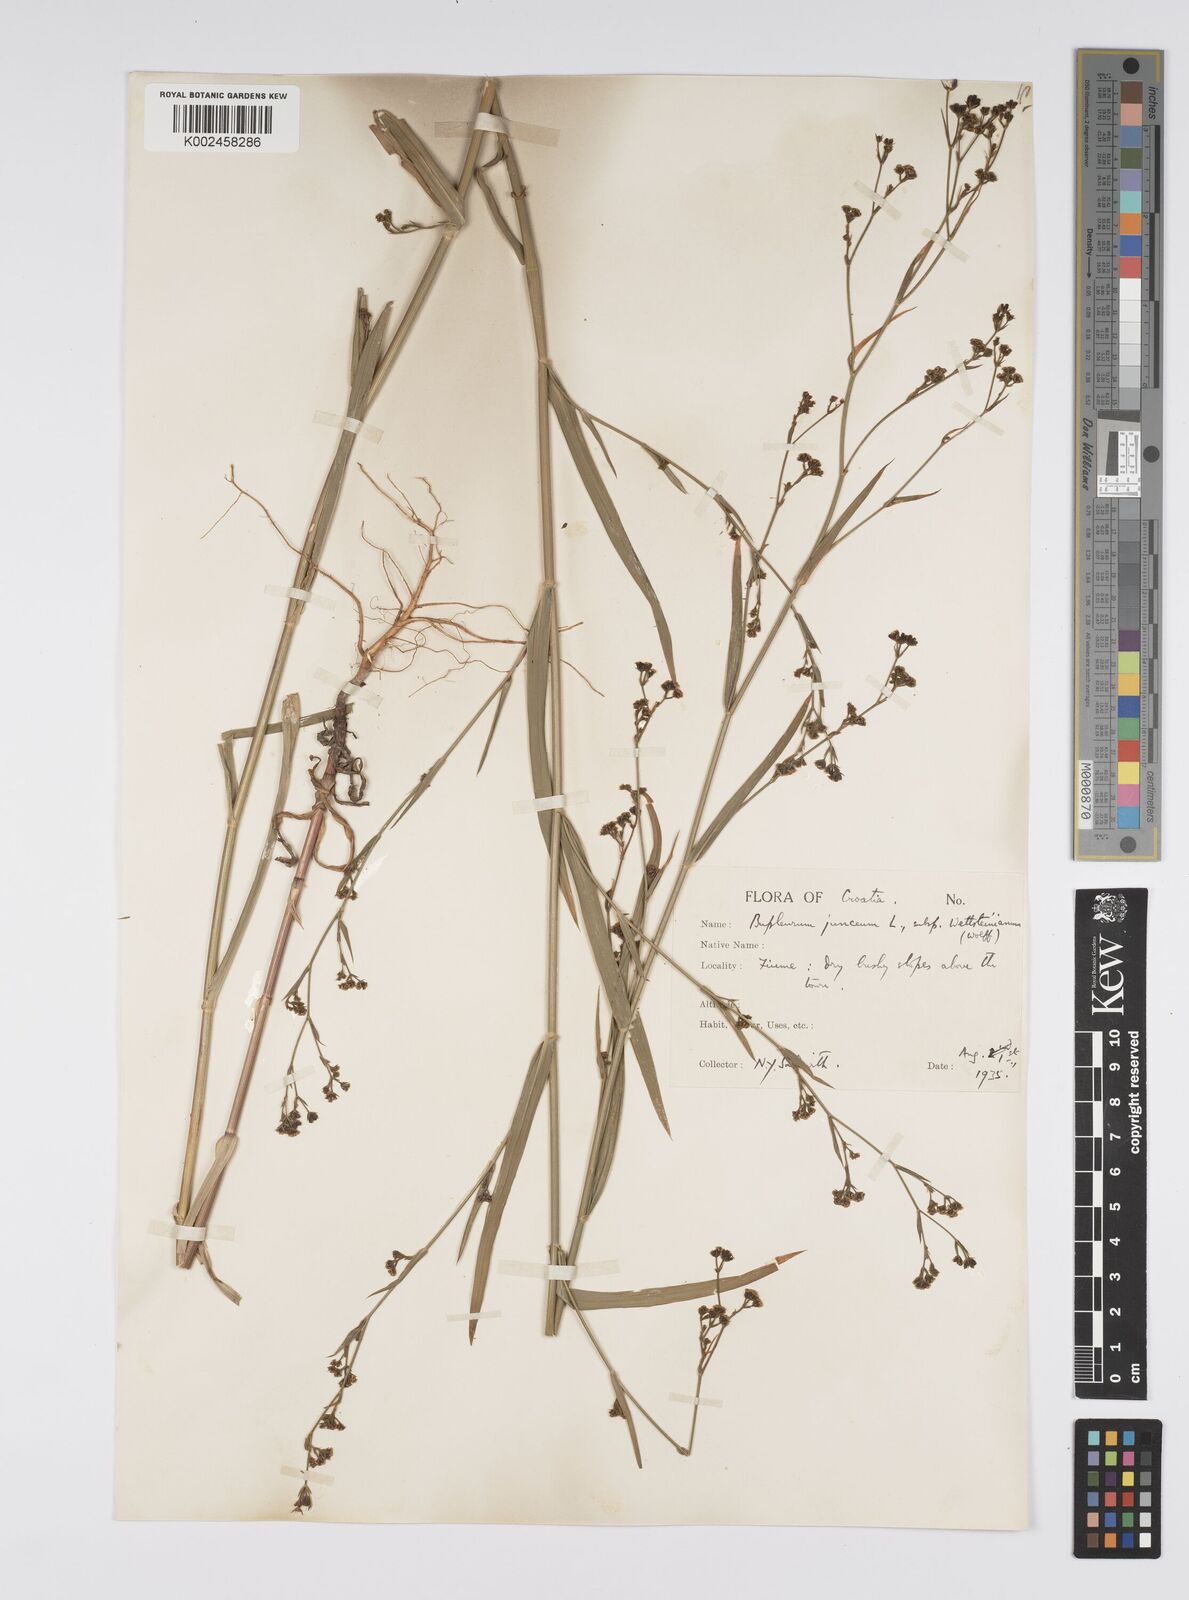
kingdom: Plantae
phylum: Tracheophyta
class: Magnoliopsida
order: Apiales
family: Apiaceae
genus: Bupleurum
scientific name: Bupleurum praealtum
